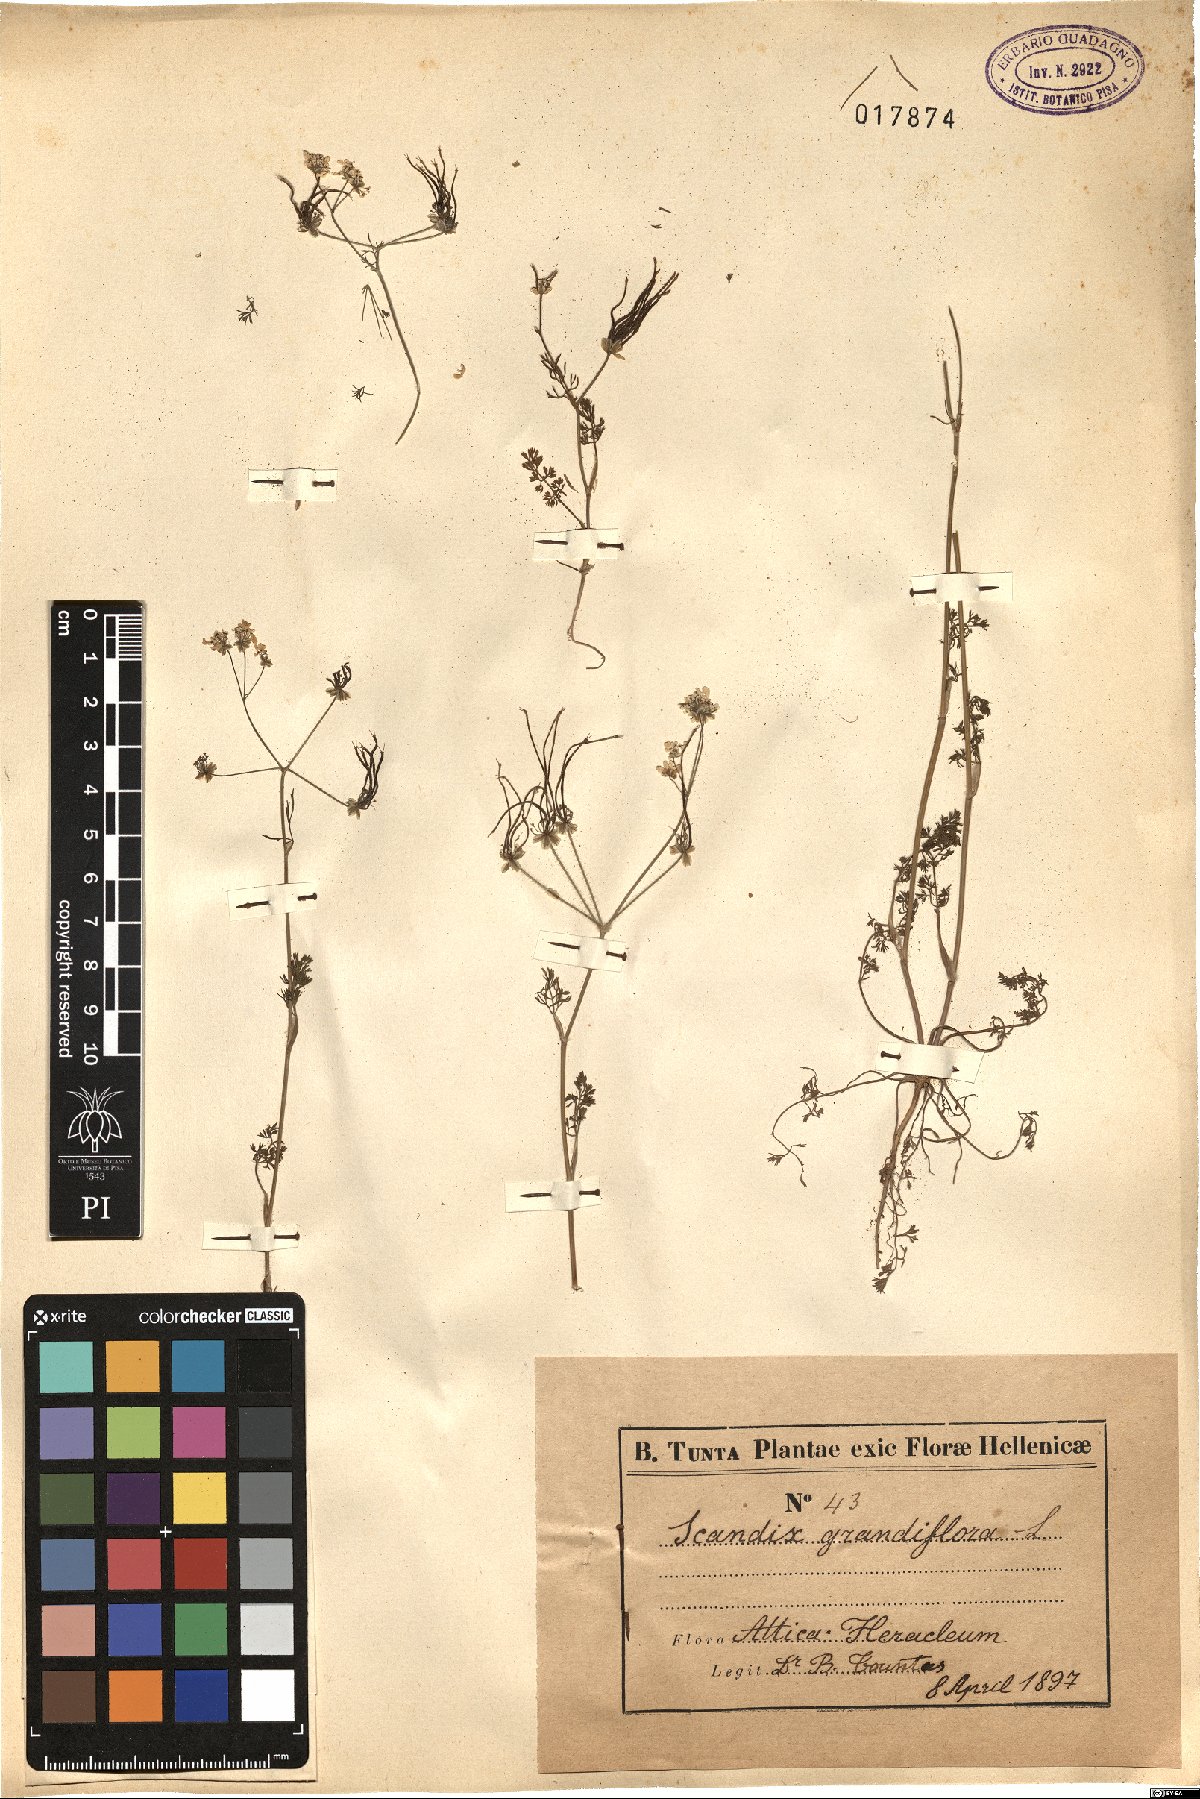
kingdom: Plantae
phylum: Tracheophyta
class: Magnoliopsida
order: Apiales
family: Apiaceae
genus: Scandix
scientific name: Scandix australis
